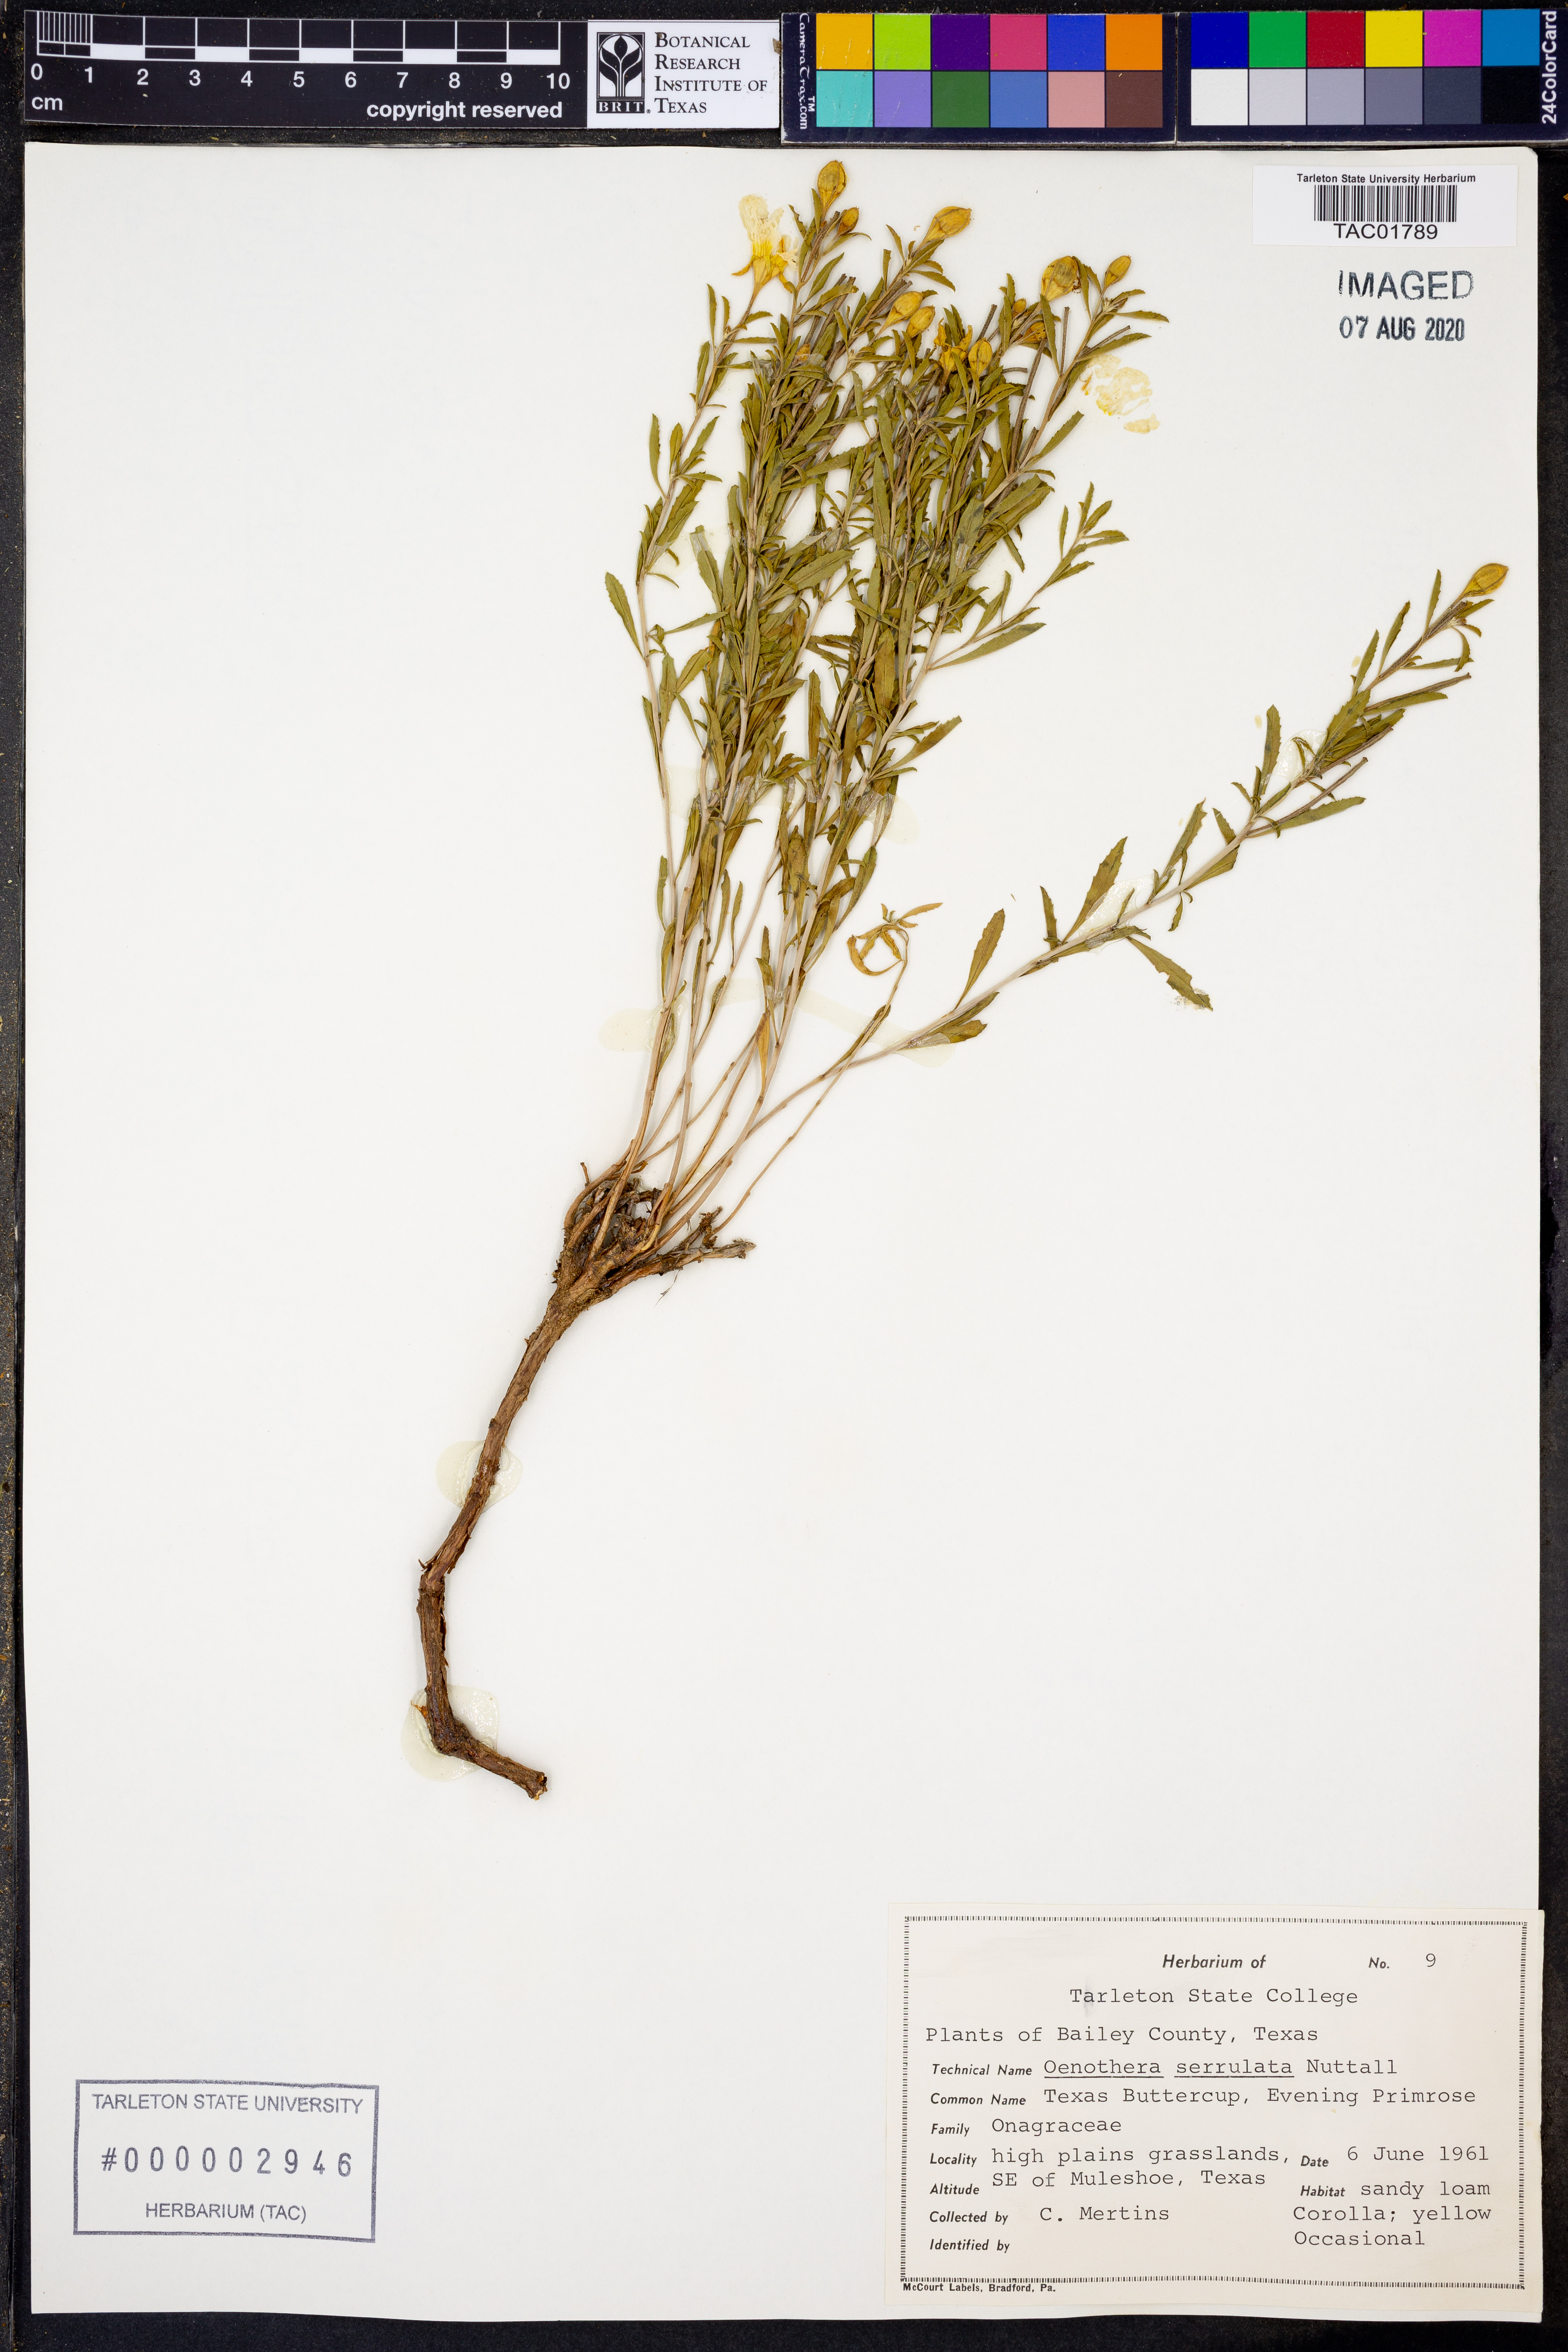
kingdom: Plantae
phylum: Tracheophyta
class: Magnoliopsida
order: Myrtales
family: Onagraceae
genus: Oenothera
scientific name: Oenothera serrulata
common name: Half-shrub calylophus
